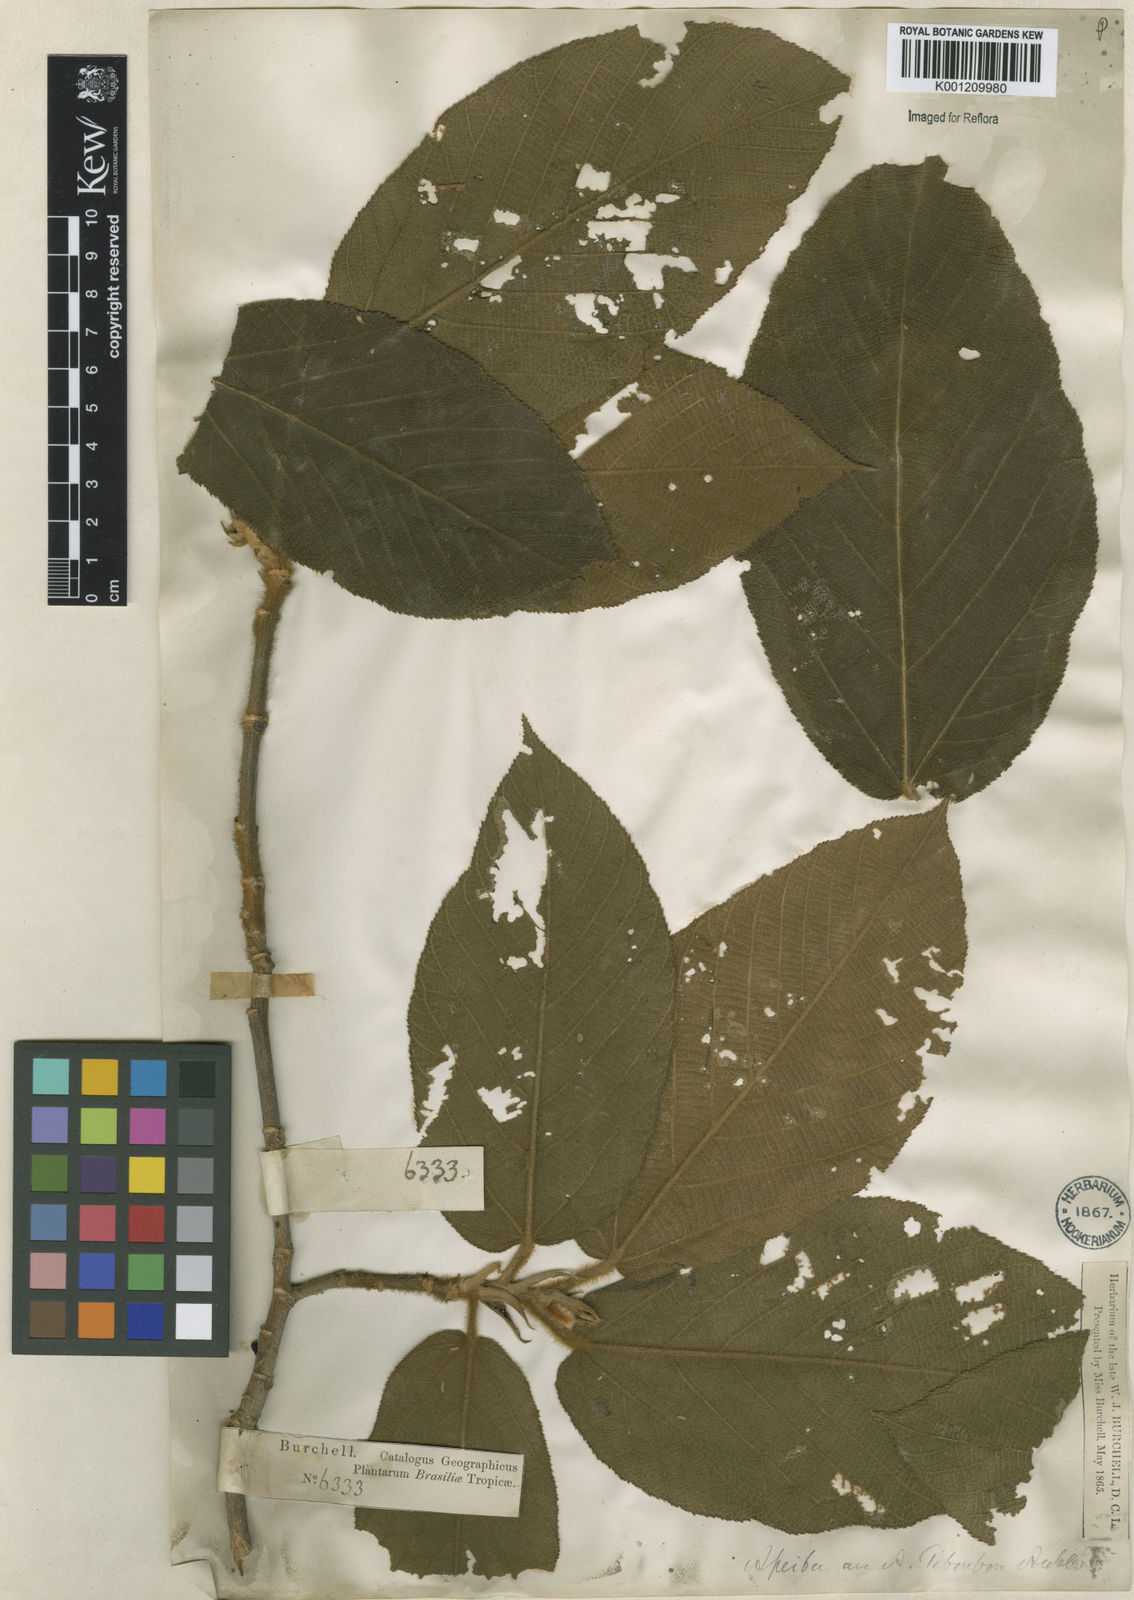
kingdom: Plantae
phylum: Tracheophyta
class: Magnoliopsida
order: Malvales
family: Malvaceae
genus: Apeiba
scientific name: Apeiba tibourbou
